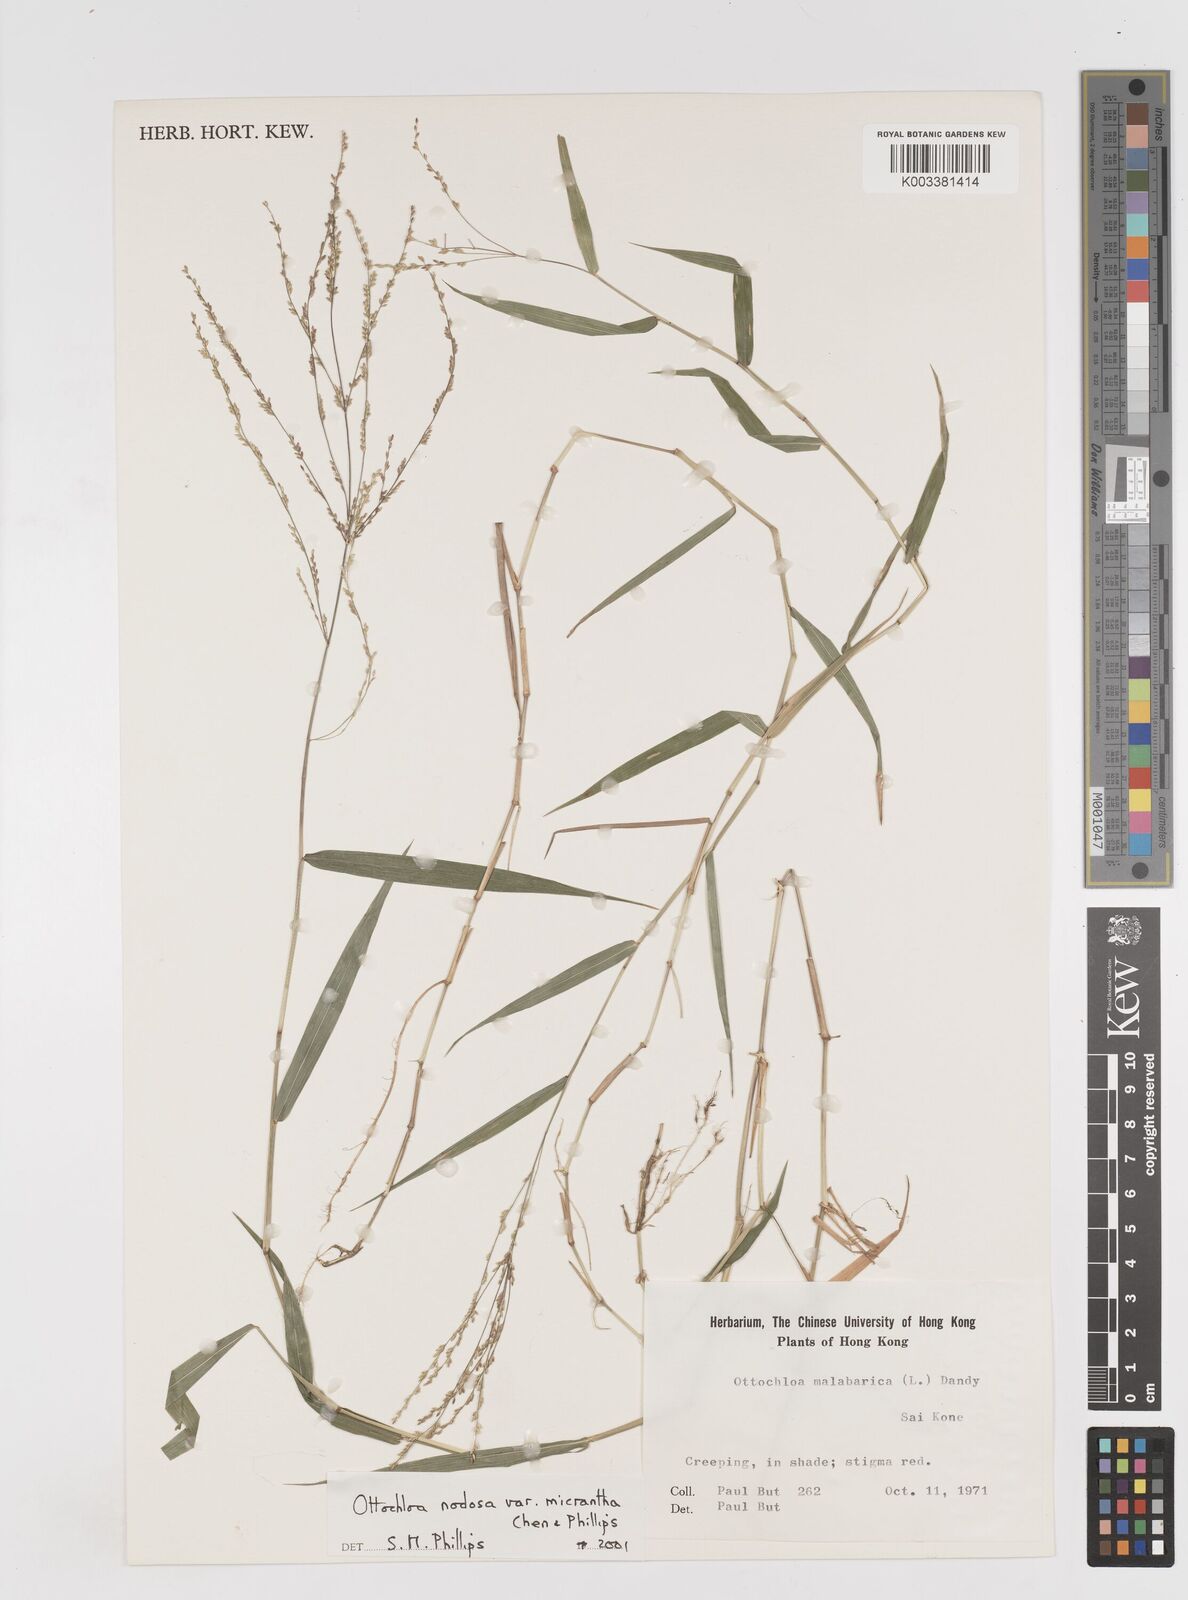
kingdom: Plantae
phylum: Tracheophyta
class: Liliopsida
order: Poales
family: Poaceae
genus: Ottochloa
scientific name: Ottochloa nodosa
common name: Slender-panic grass
